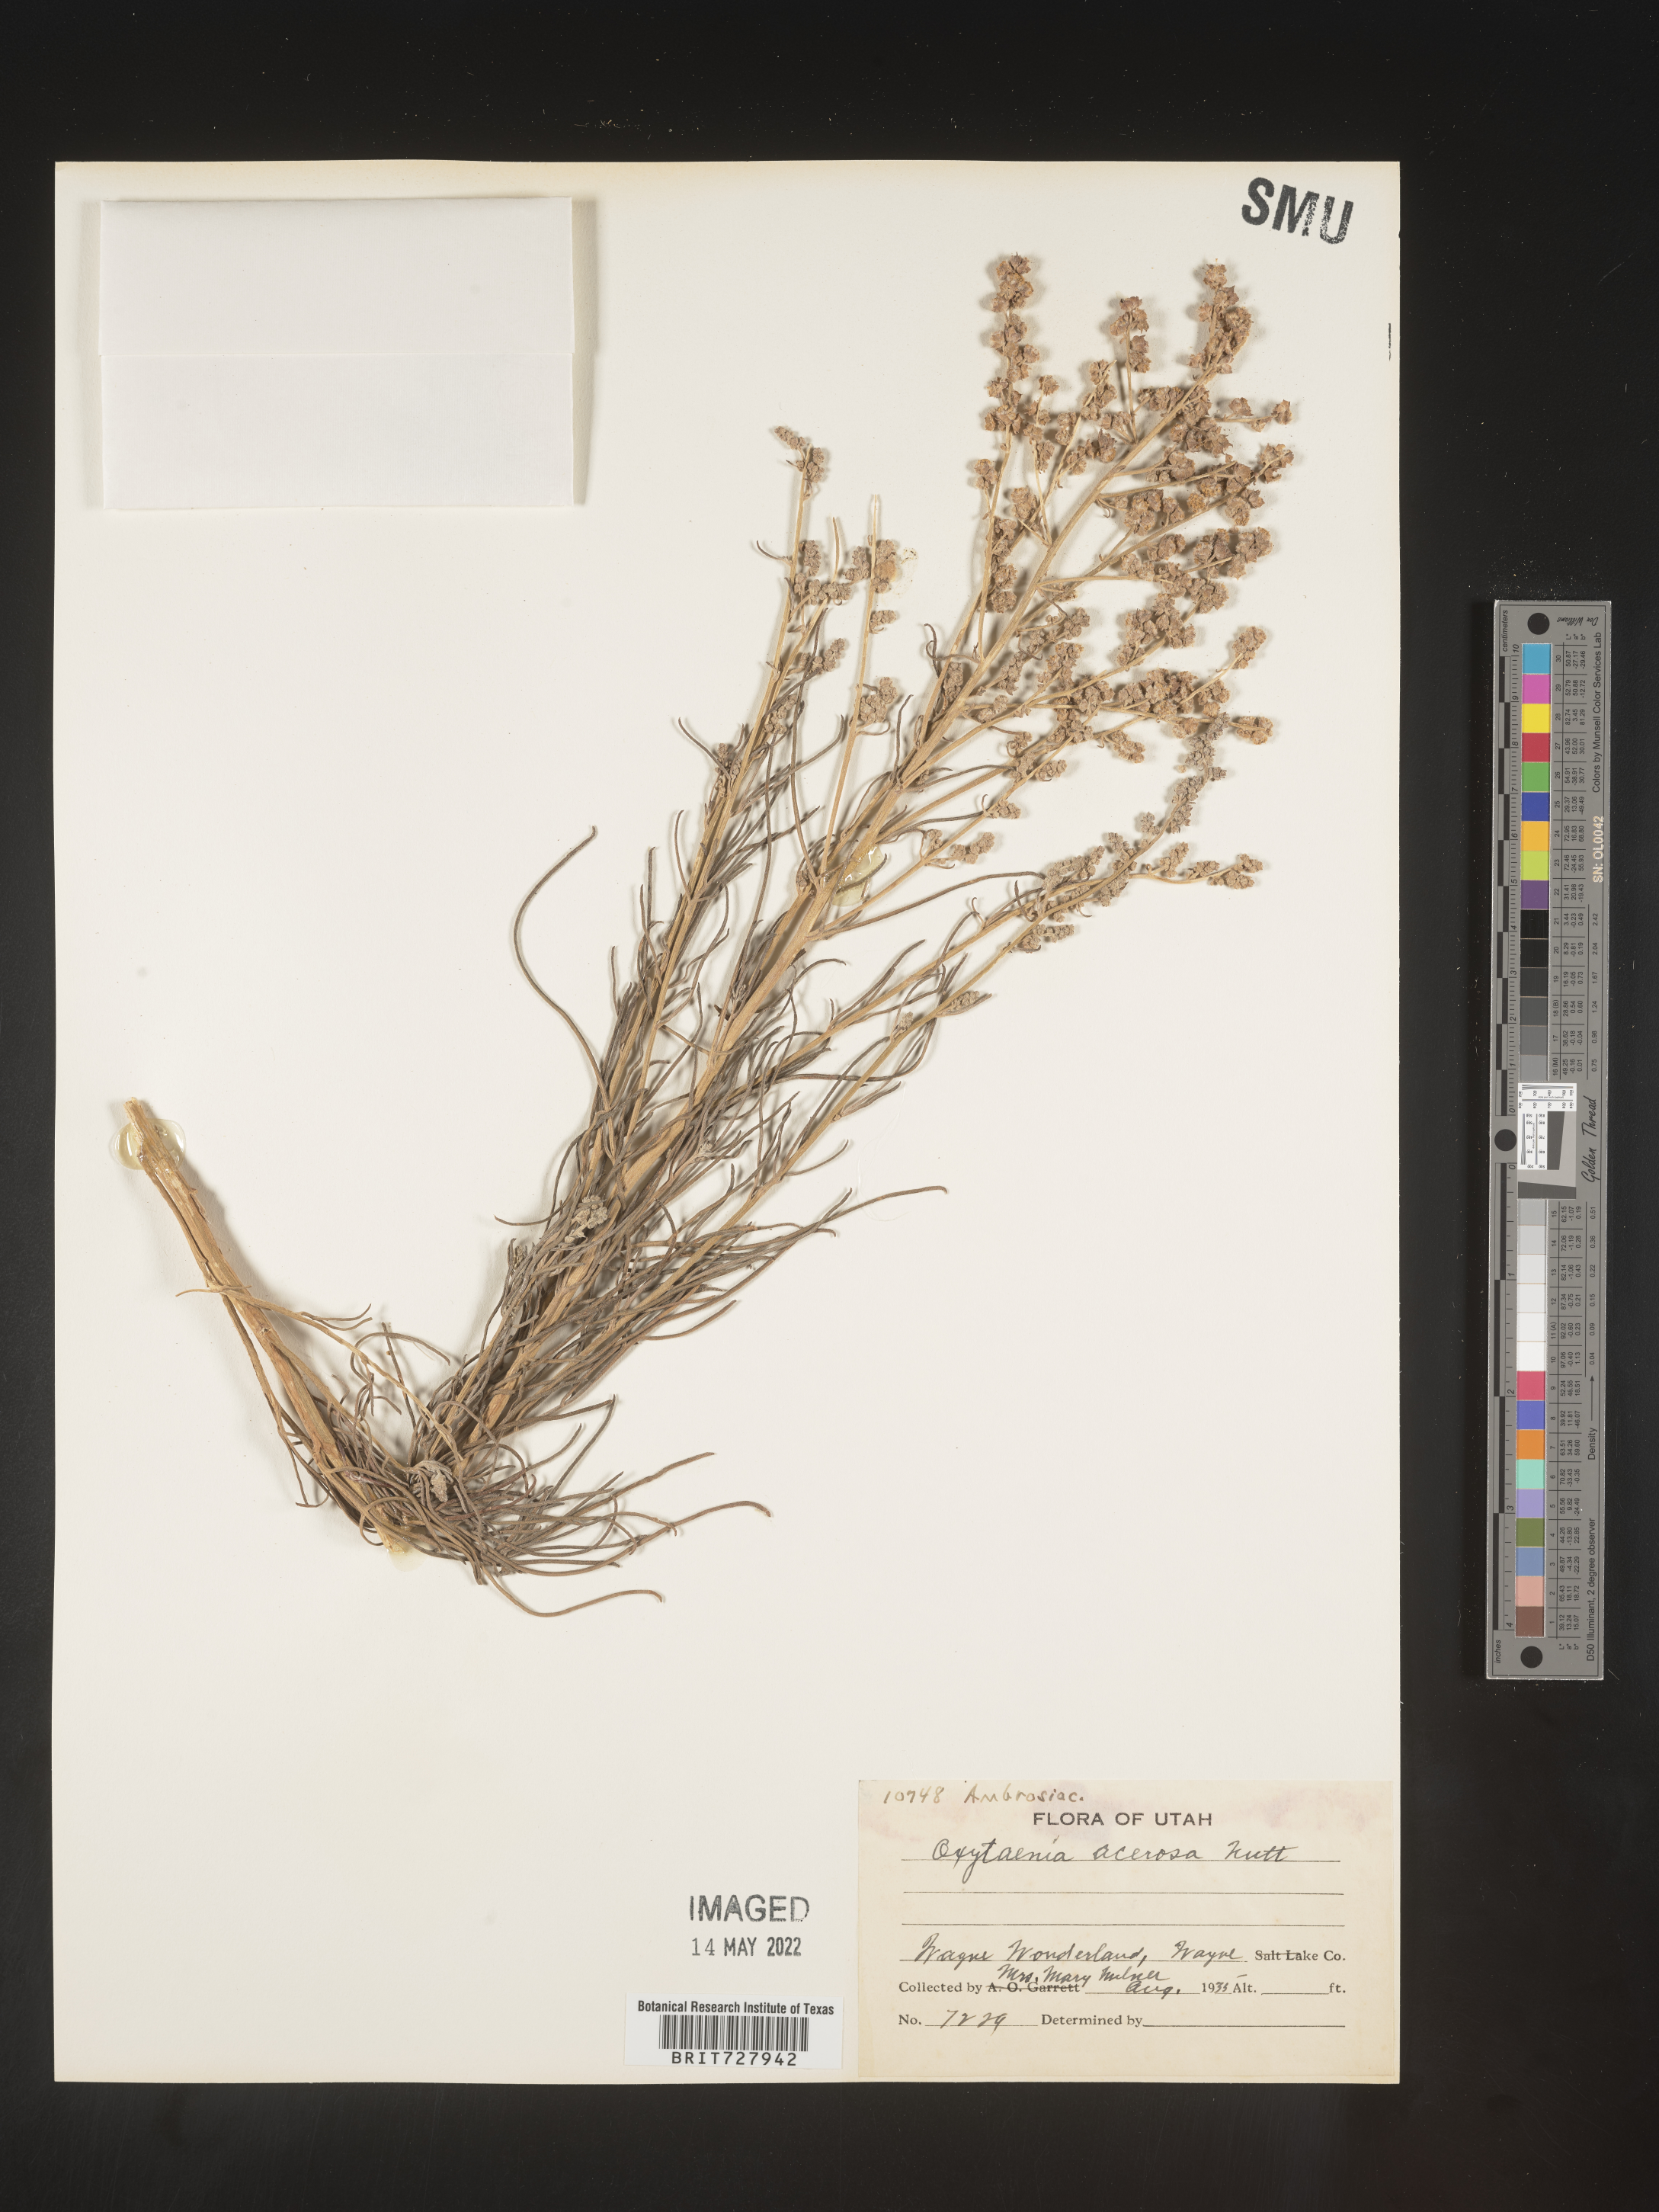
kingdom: Plantae
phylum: Tracheophyta
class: Magnoliopsida
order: Asterales
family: Asteraceae
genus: Euphrosyne
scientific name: Euphrosyne acerosa
